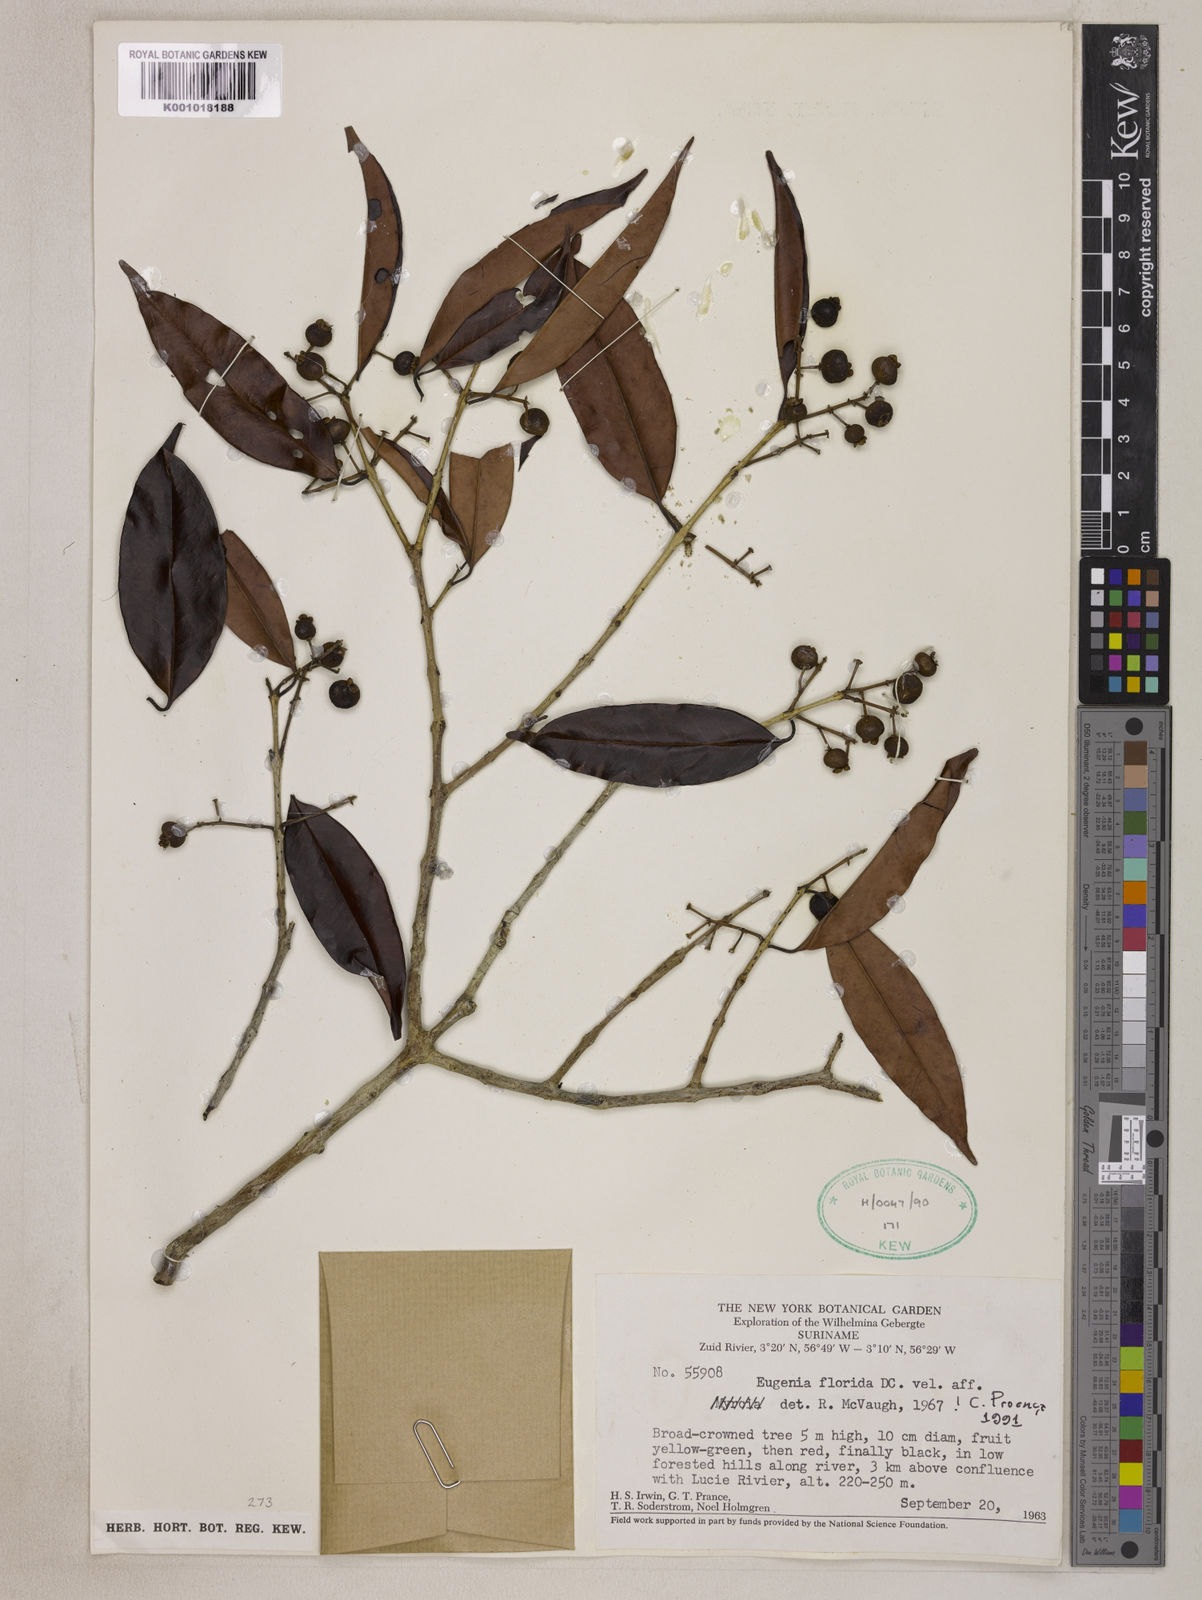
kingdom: Plantae
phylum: Tracheophyta
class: Magnoliopsida
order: Myrtales
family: Myrtaceae
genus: Eugenia
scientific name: Eugenia florida
